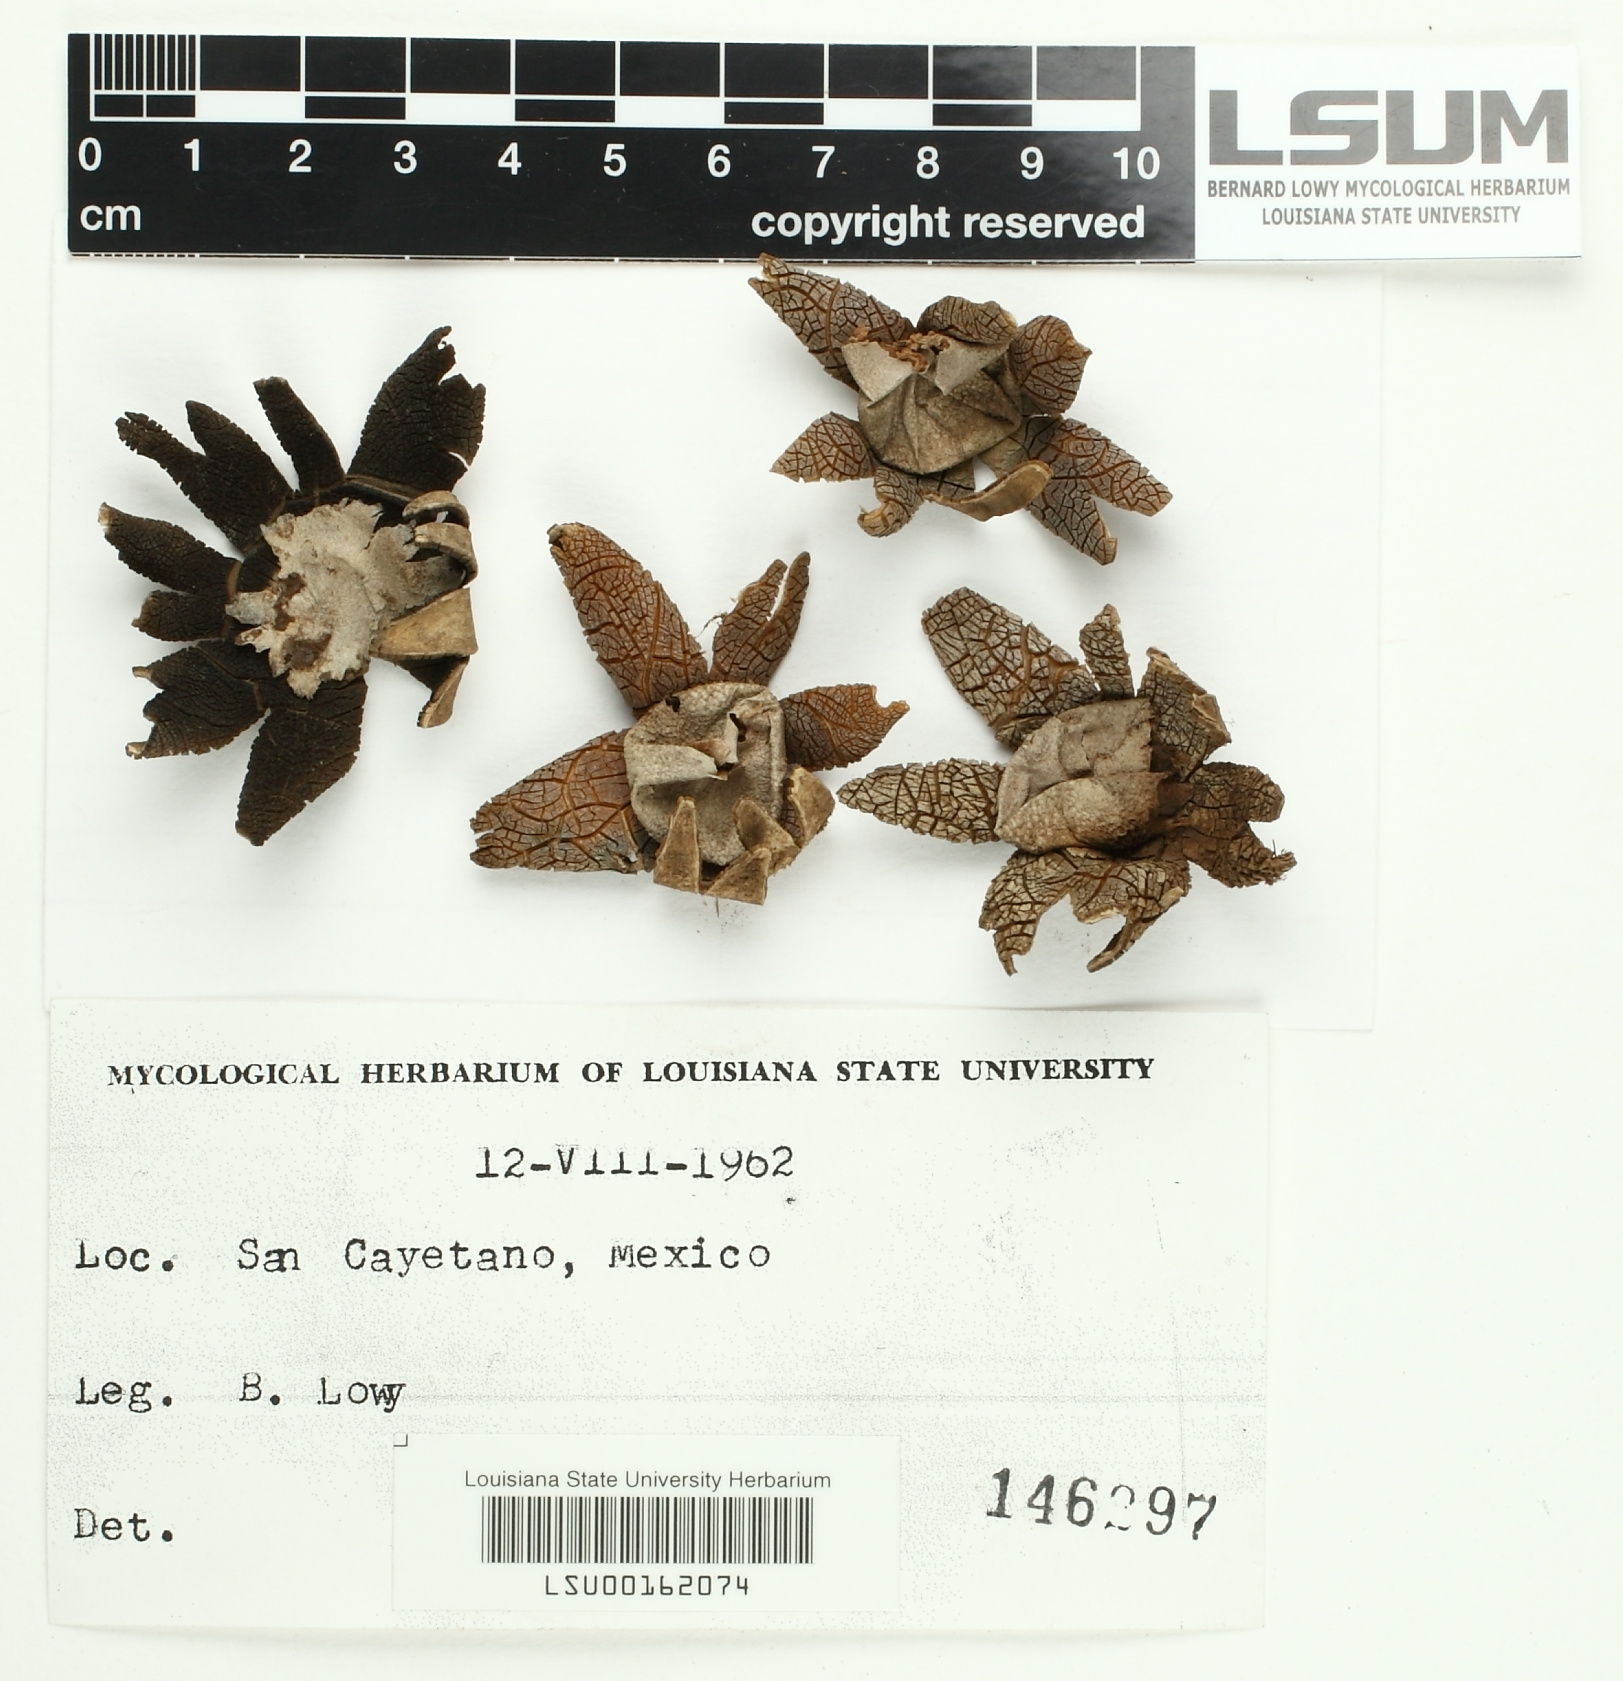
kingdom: Fungi
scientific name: Fungi
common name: Fungi
